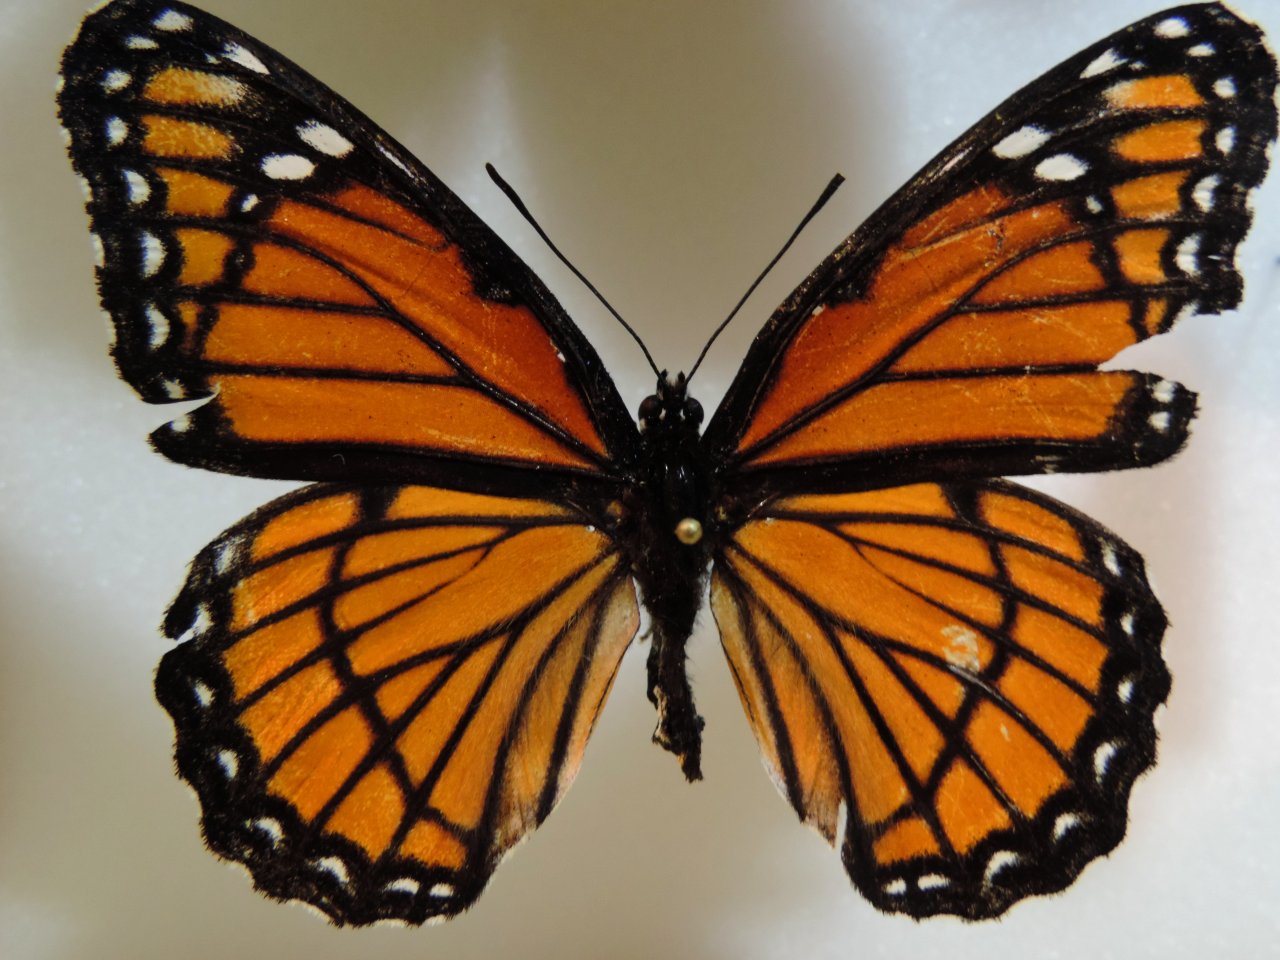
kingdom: Animalia
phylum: Arthropoda
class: Insecta
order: Lepidoptera
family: Nymphalidae
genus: Limenitis
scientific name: Limenitis archippus
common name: Viceroy
